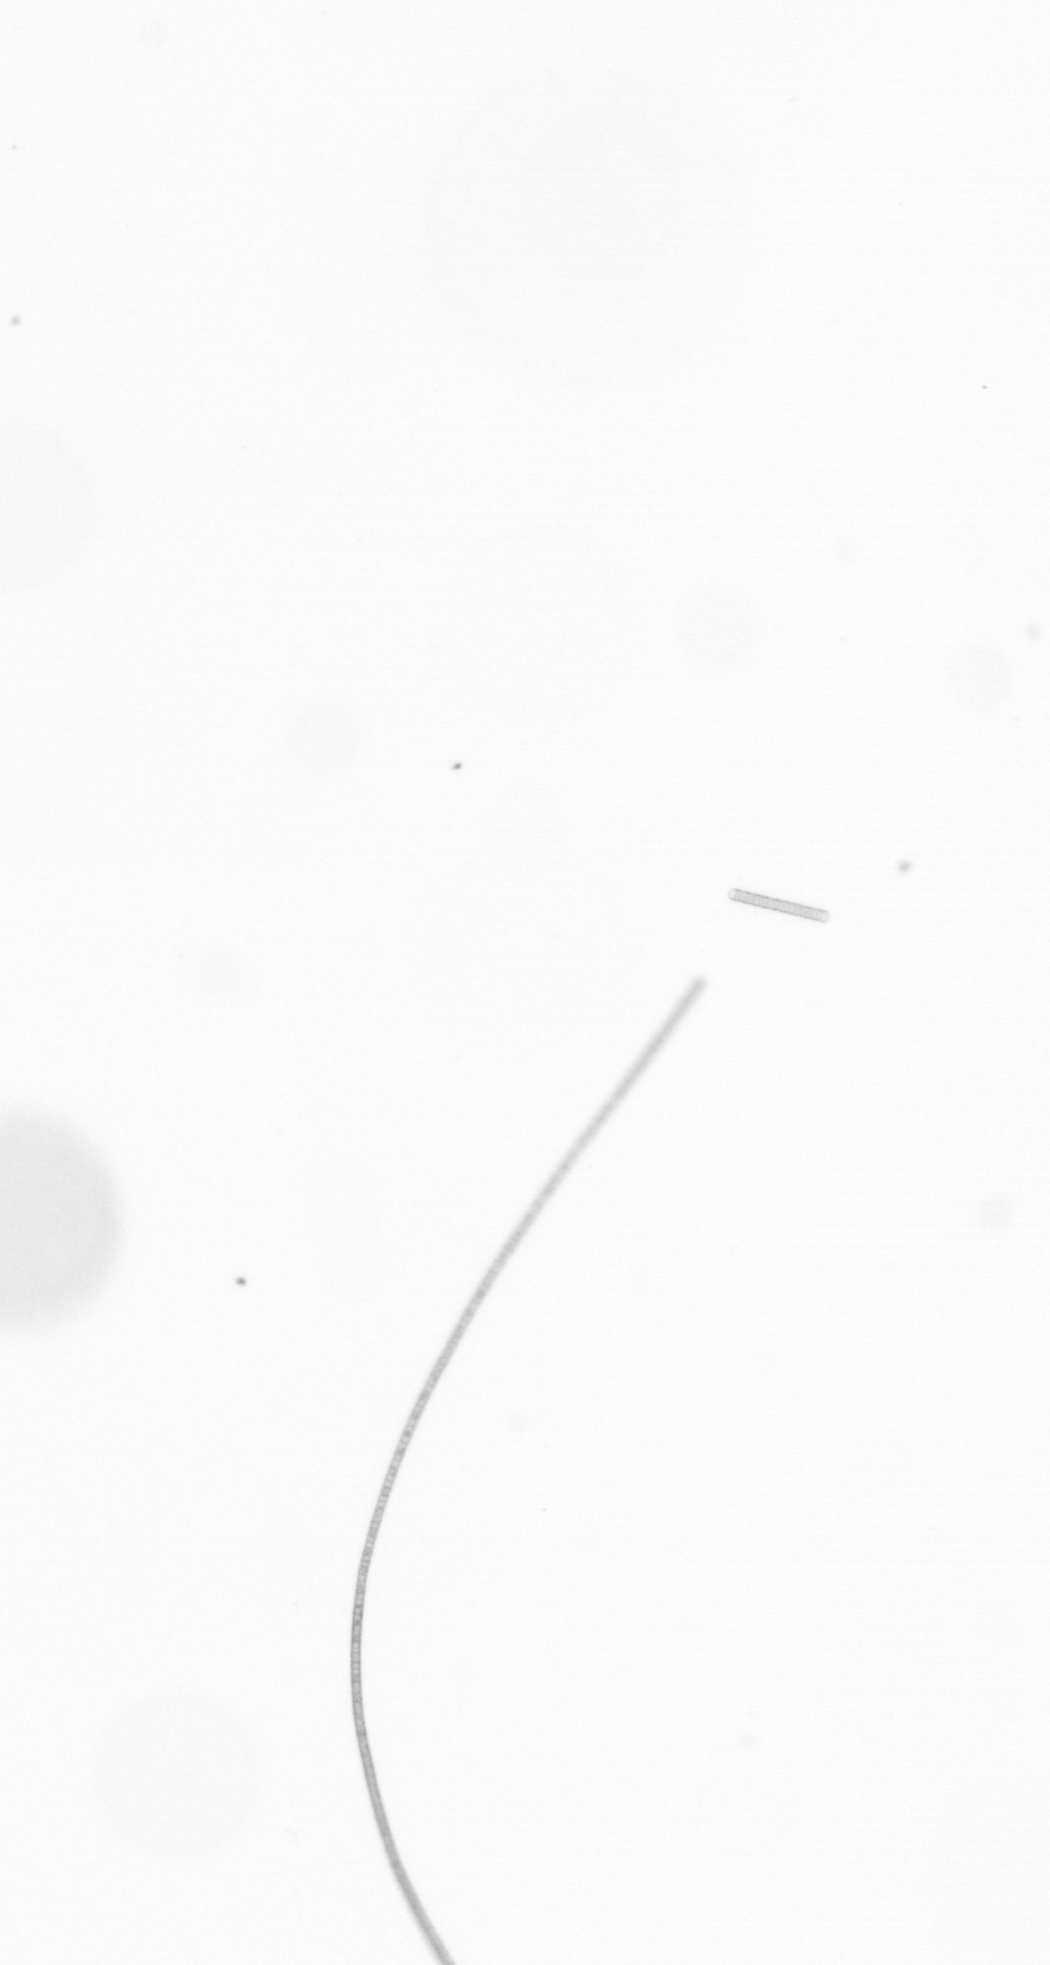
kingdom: Chromista
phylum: Ochrophyta
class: Bacillariophyceae
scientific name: Bacillariophyceae
